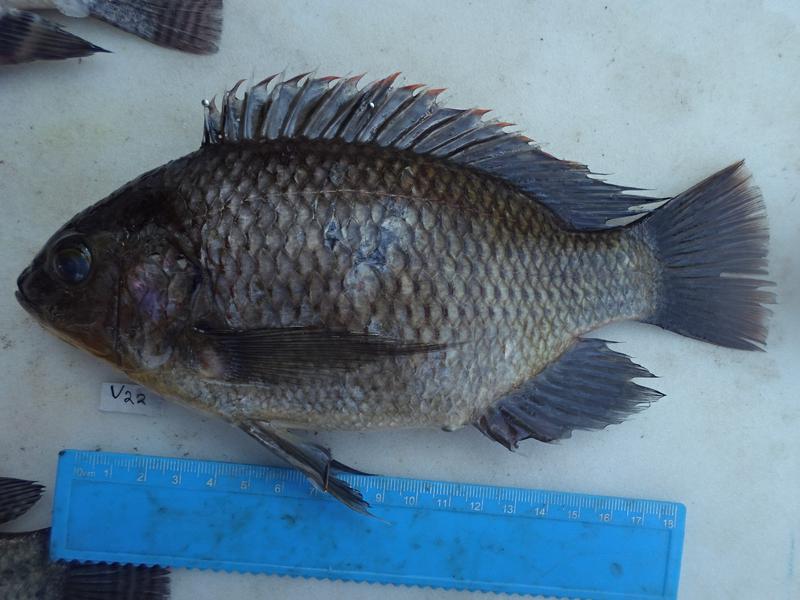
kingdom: Animalia
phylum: Chordata
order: Perciformes
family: Cichlidae
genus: Oreochromis
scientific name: Oreochromis variabilis
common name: Victoria tilapia
